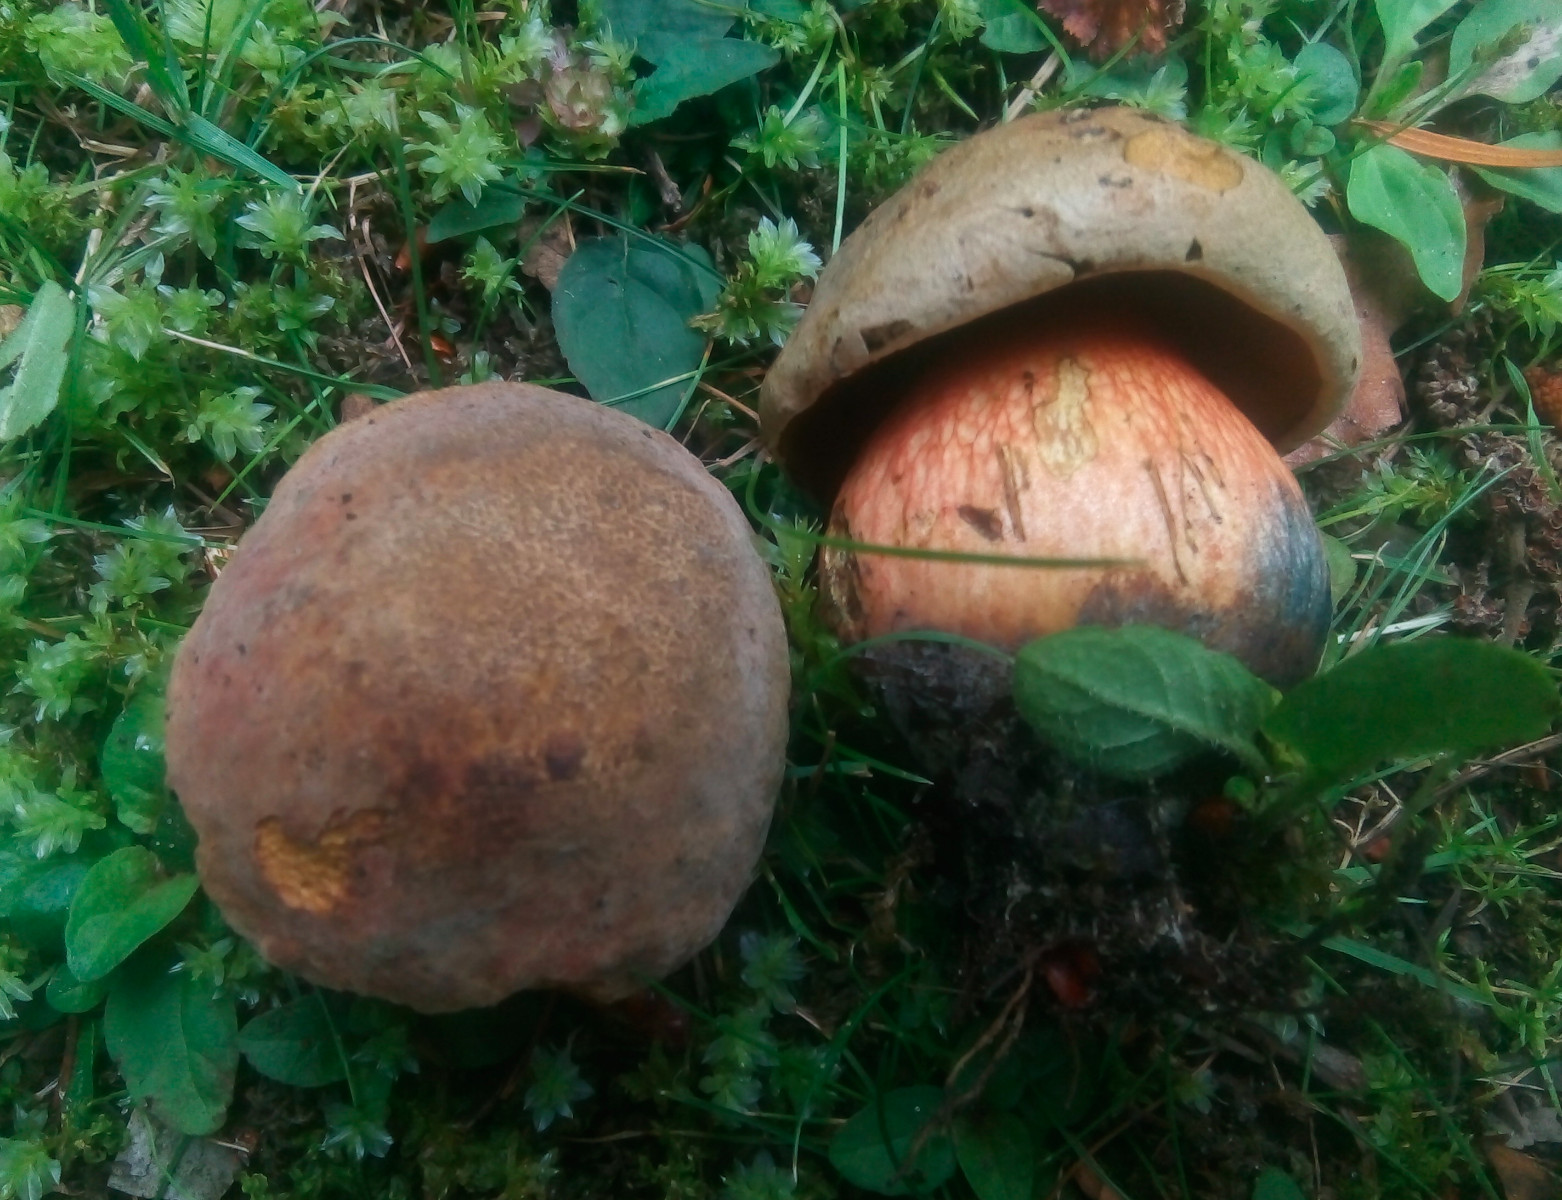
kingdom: Fungi
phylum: Basidiomycota
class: Agaricomycetes
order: Boletales
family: Boletaceae
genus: Suillellus
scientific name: Suillellus luridus
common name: netstokket indigorørhat
